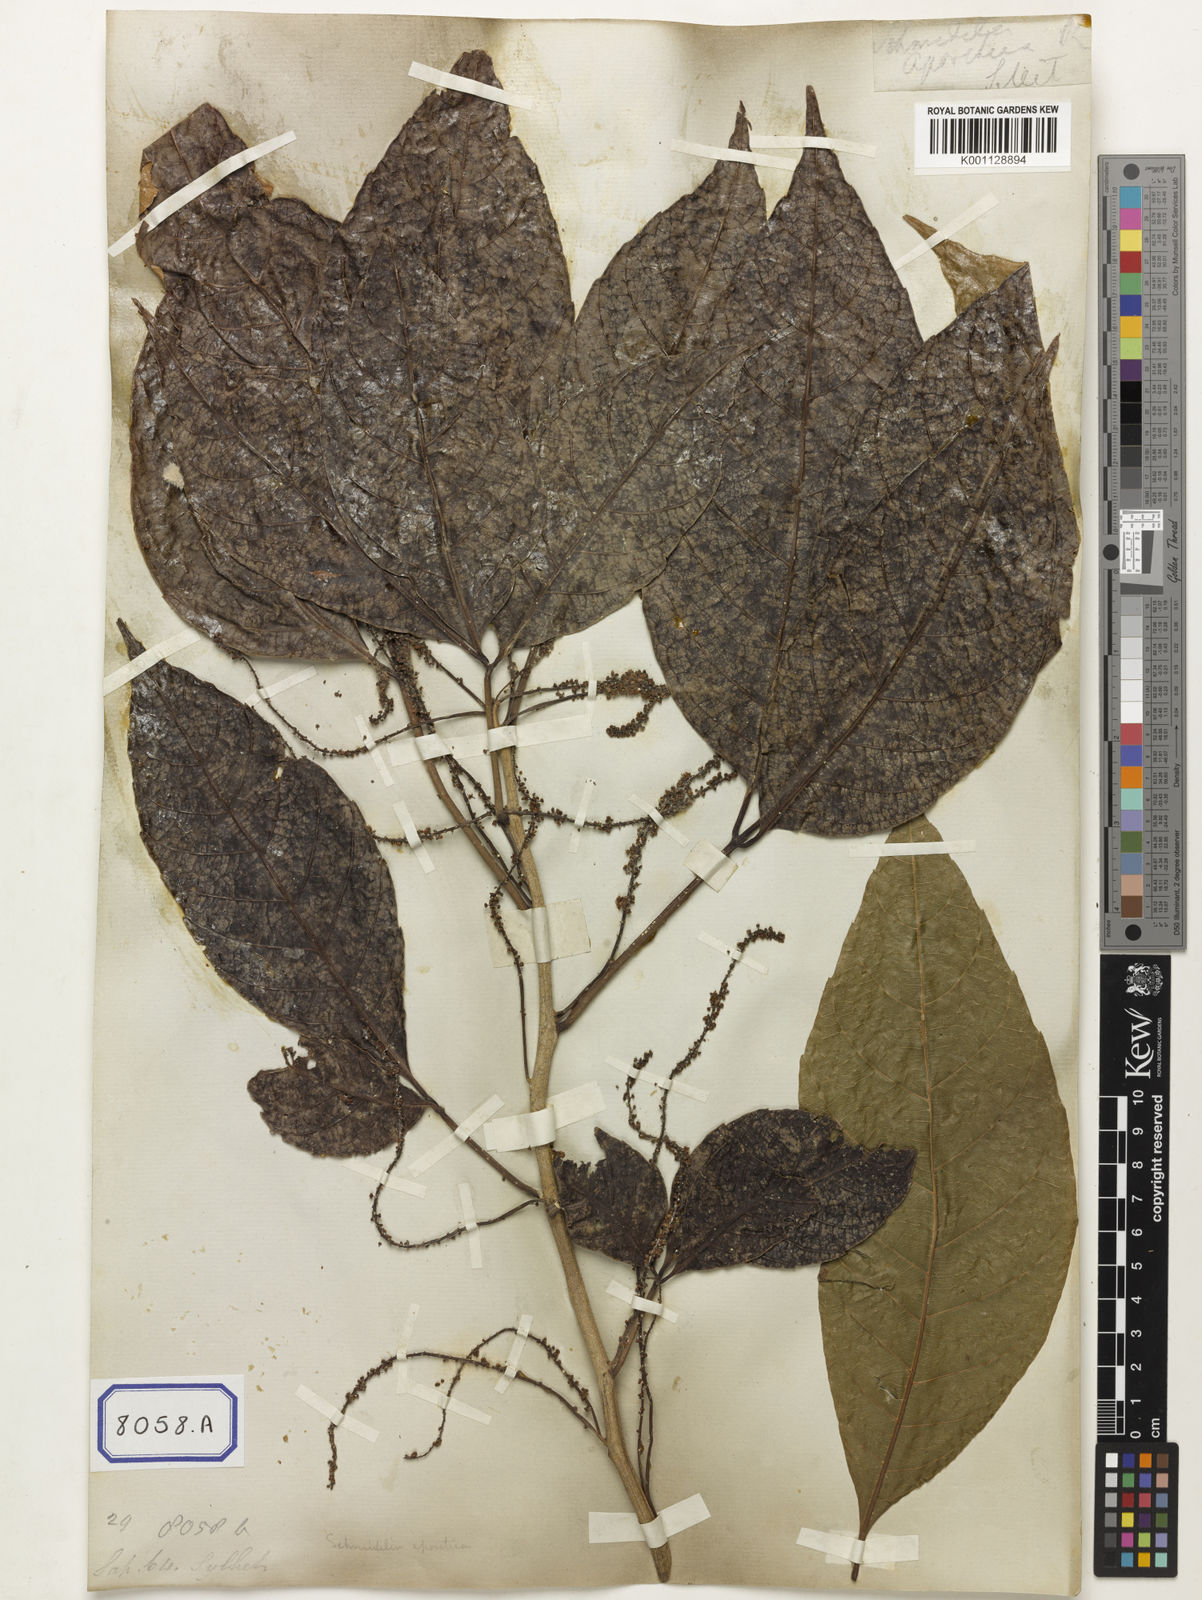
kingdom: Plantae
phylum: Tracheophyta
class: Magnoliopsida
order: Malpighiales
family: Calophyllaceae
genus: Calophyllum
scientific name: Calophyllum
